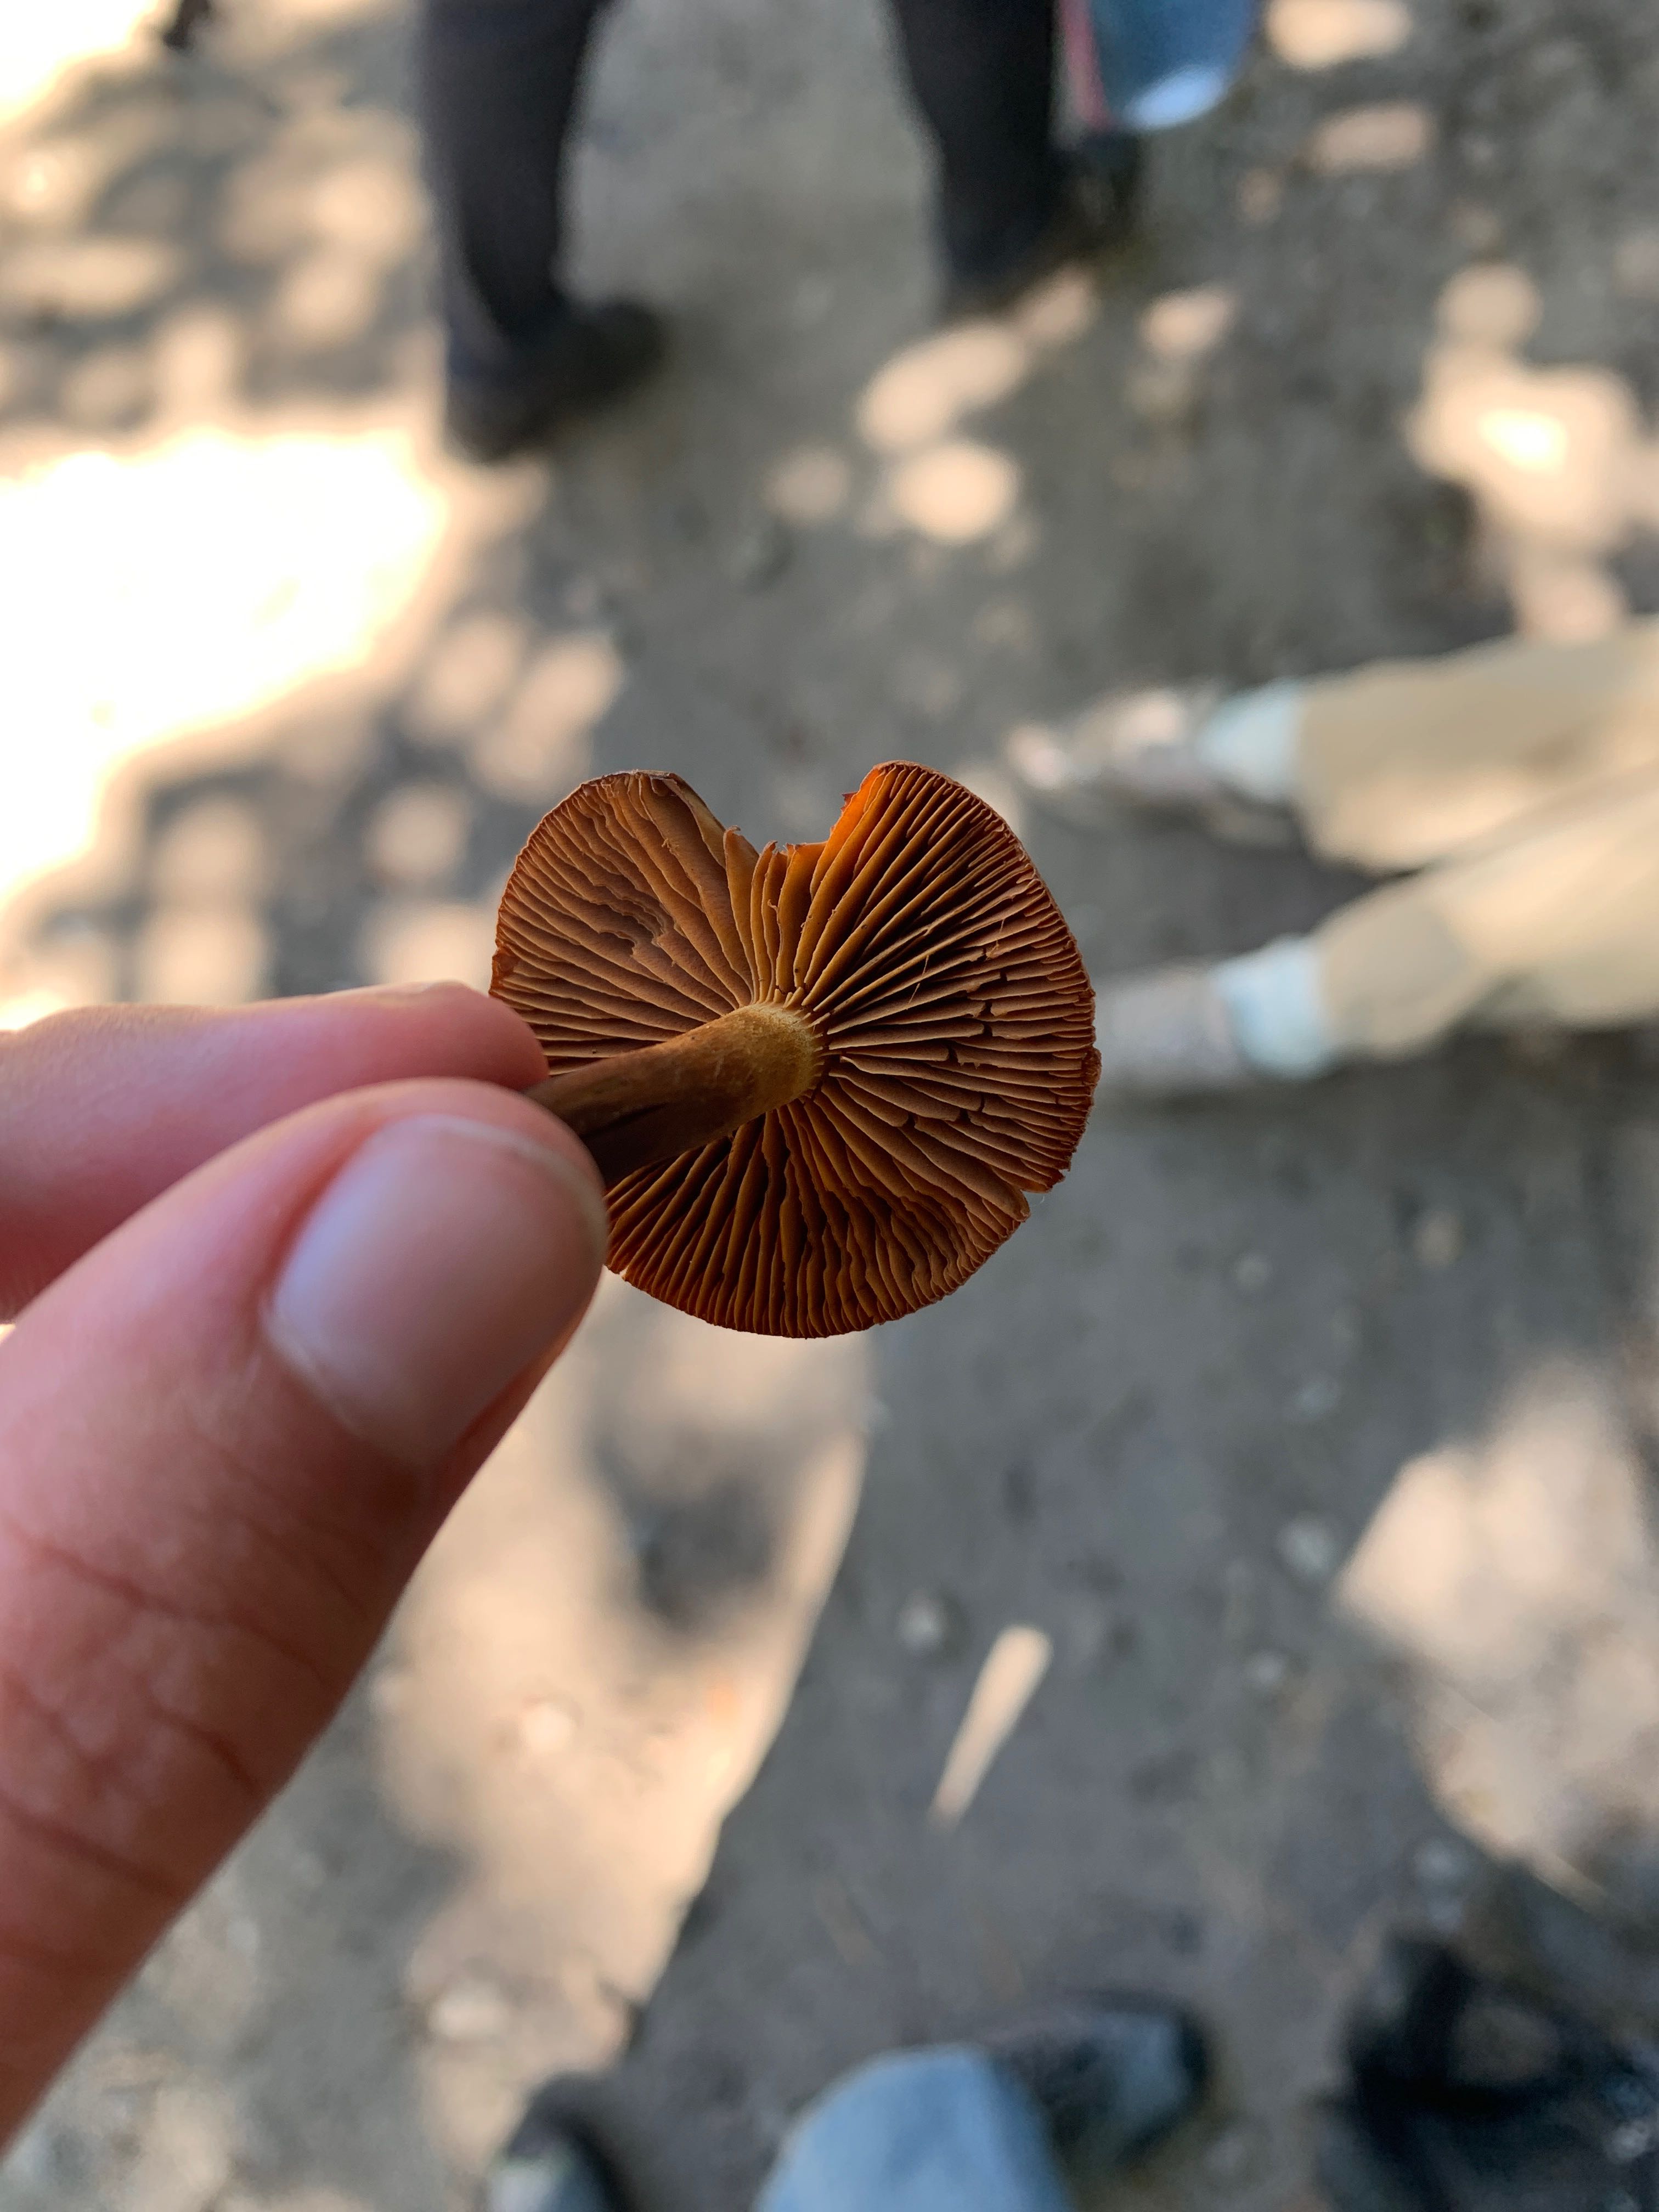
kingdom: Fungi
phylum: Basidiomycota
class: Agaricomycetes
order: Agaricales
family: Cortinariaceae
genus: Cortinarius
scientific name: Cortinarius
